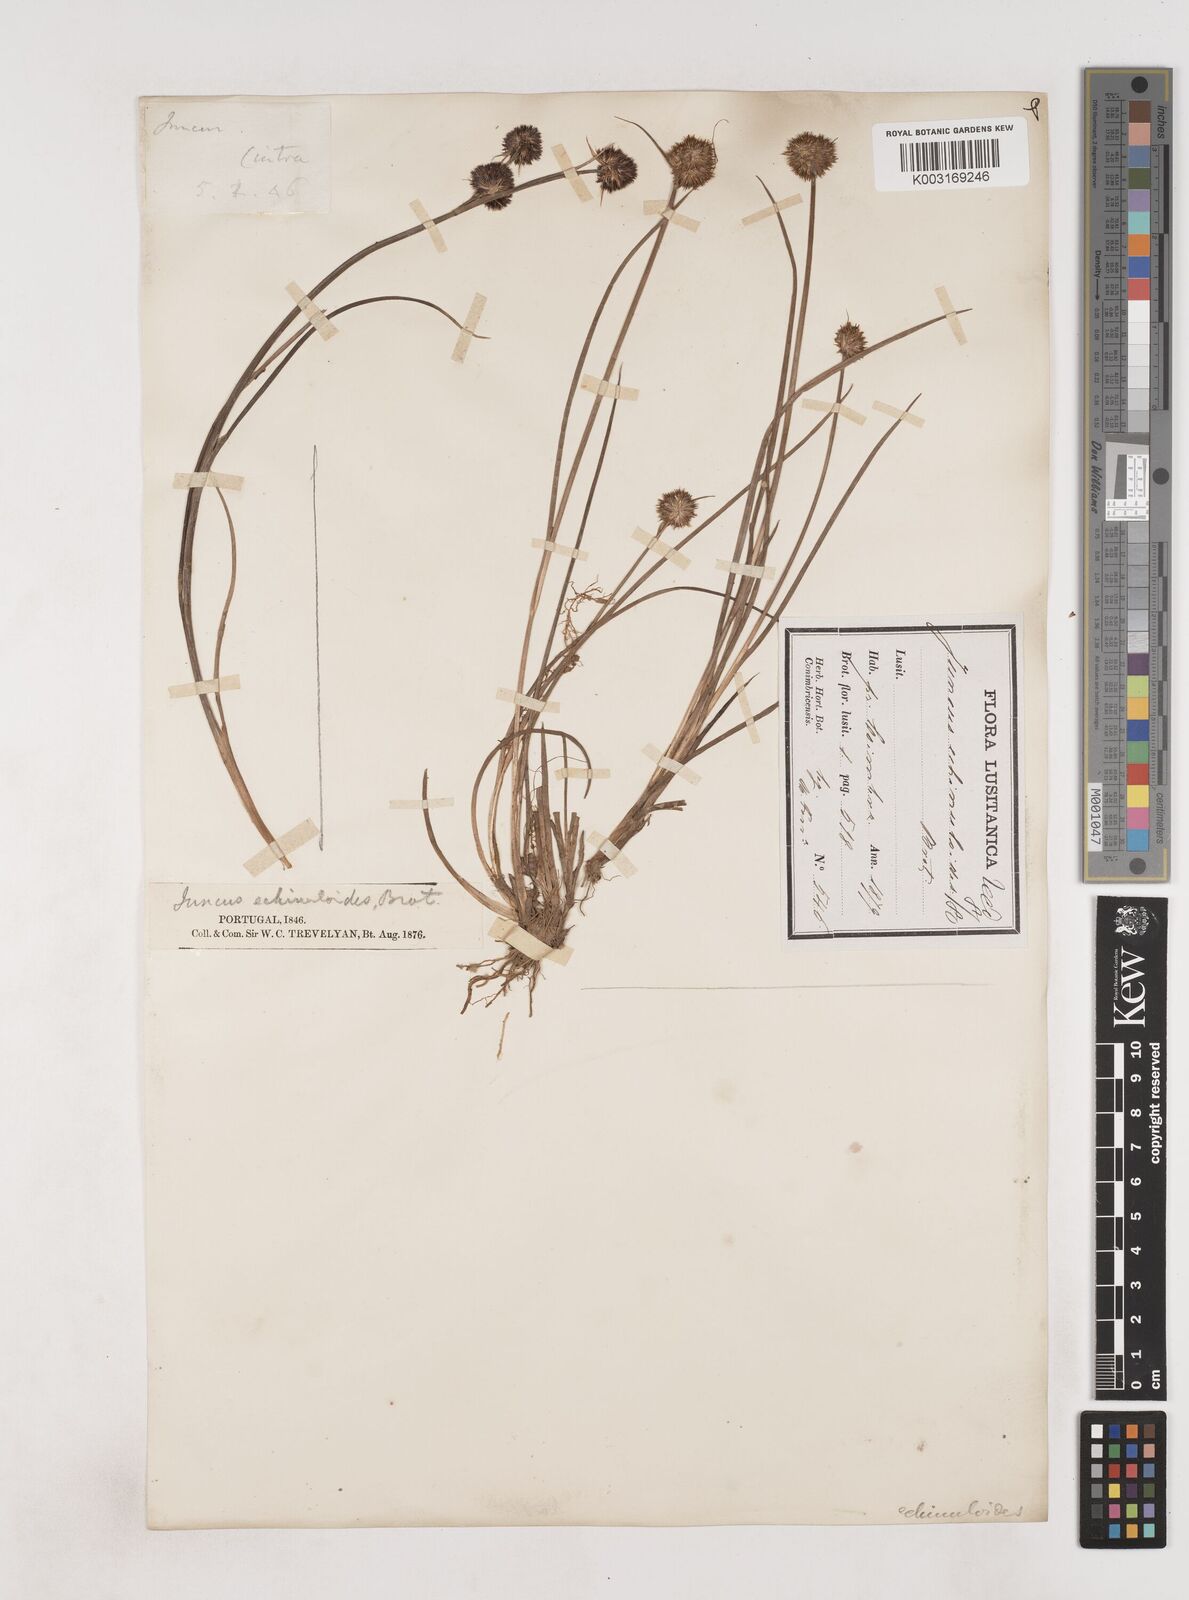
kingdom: Plantae
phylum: Tracheophyta
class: Liliopsida
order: Poales
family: Juncaceae
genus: Juncus
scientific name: Juncus valvatus
